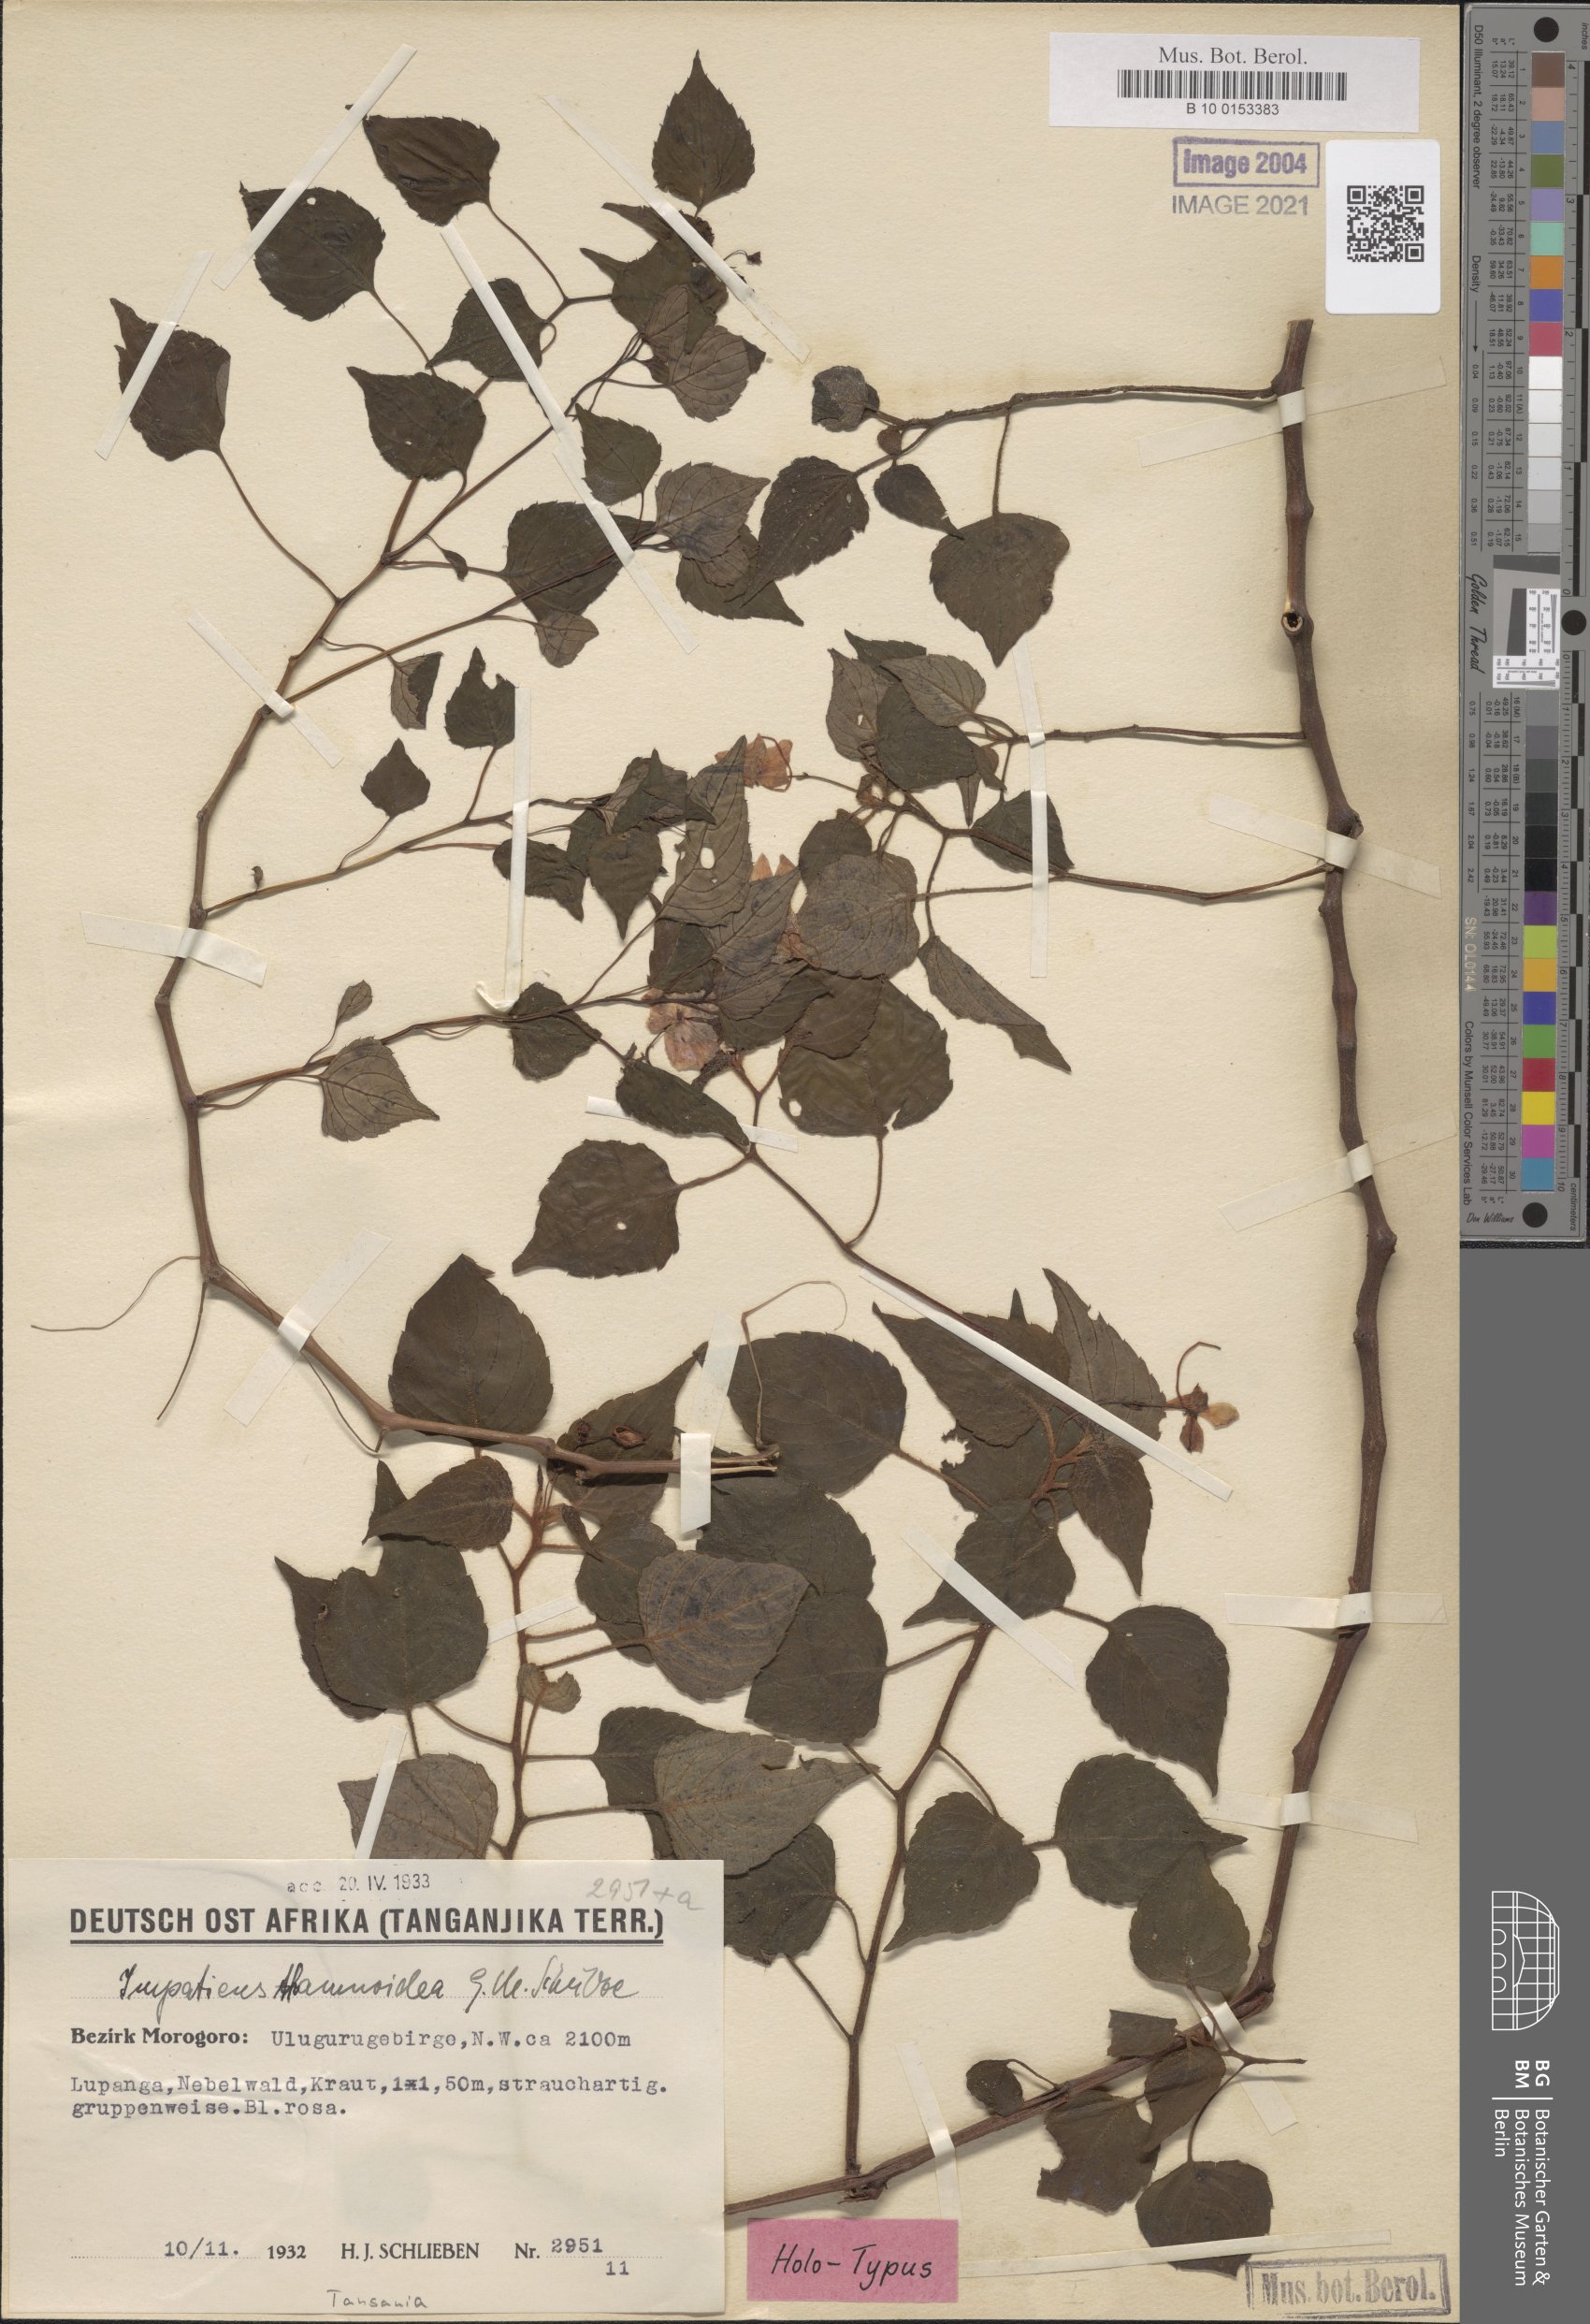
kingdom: Plantae
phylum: Tracheophyta
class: Magnoliopsida
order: Ericales
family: Balsaminaceae
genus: Impatiens
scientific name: Impatiens thamnoidea
